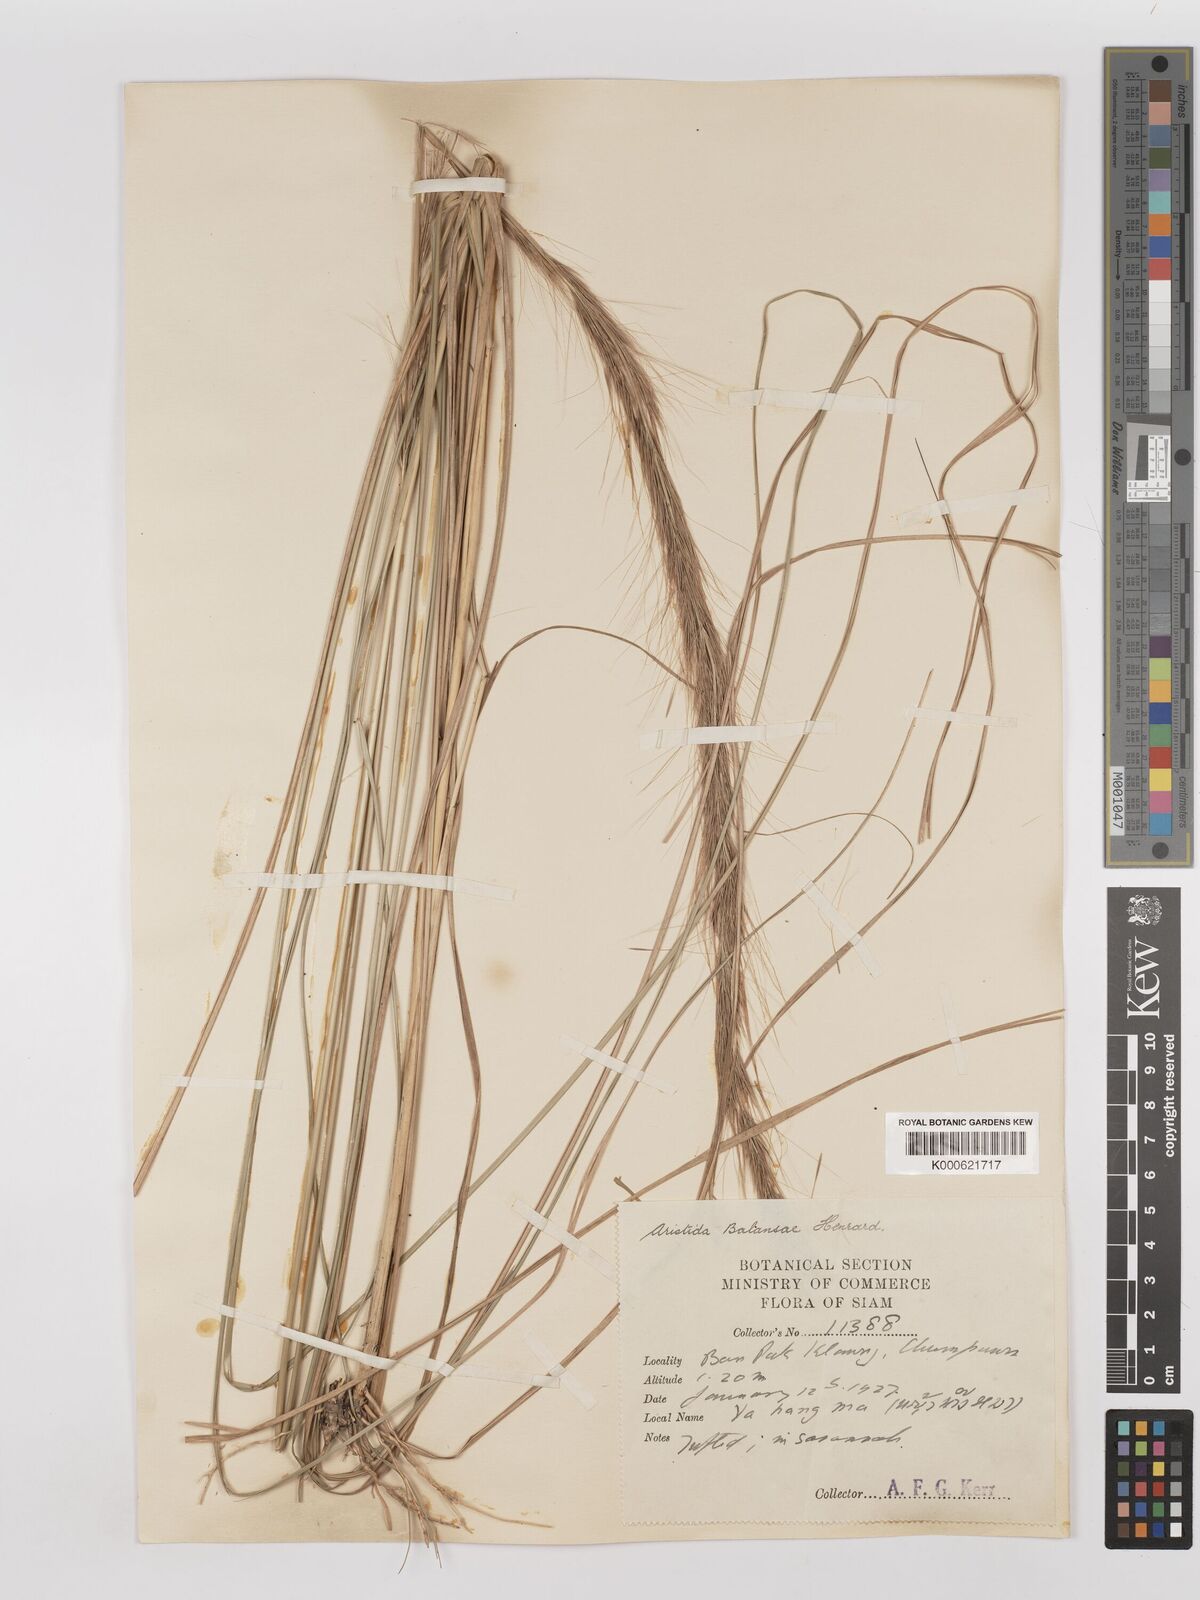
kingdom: Plantae
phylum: Tracheophyta
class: Liliopsida
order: Poales
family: Poaceae
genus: Aristida
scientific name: Aristida balansae
